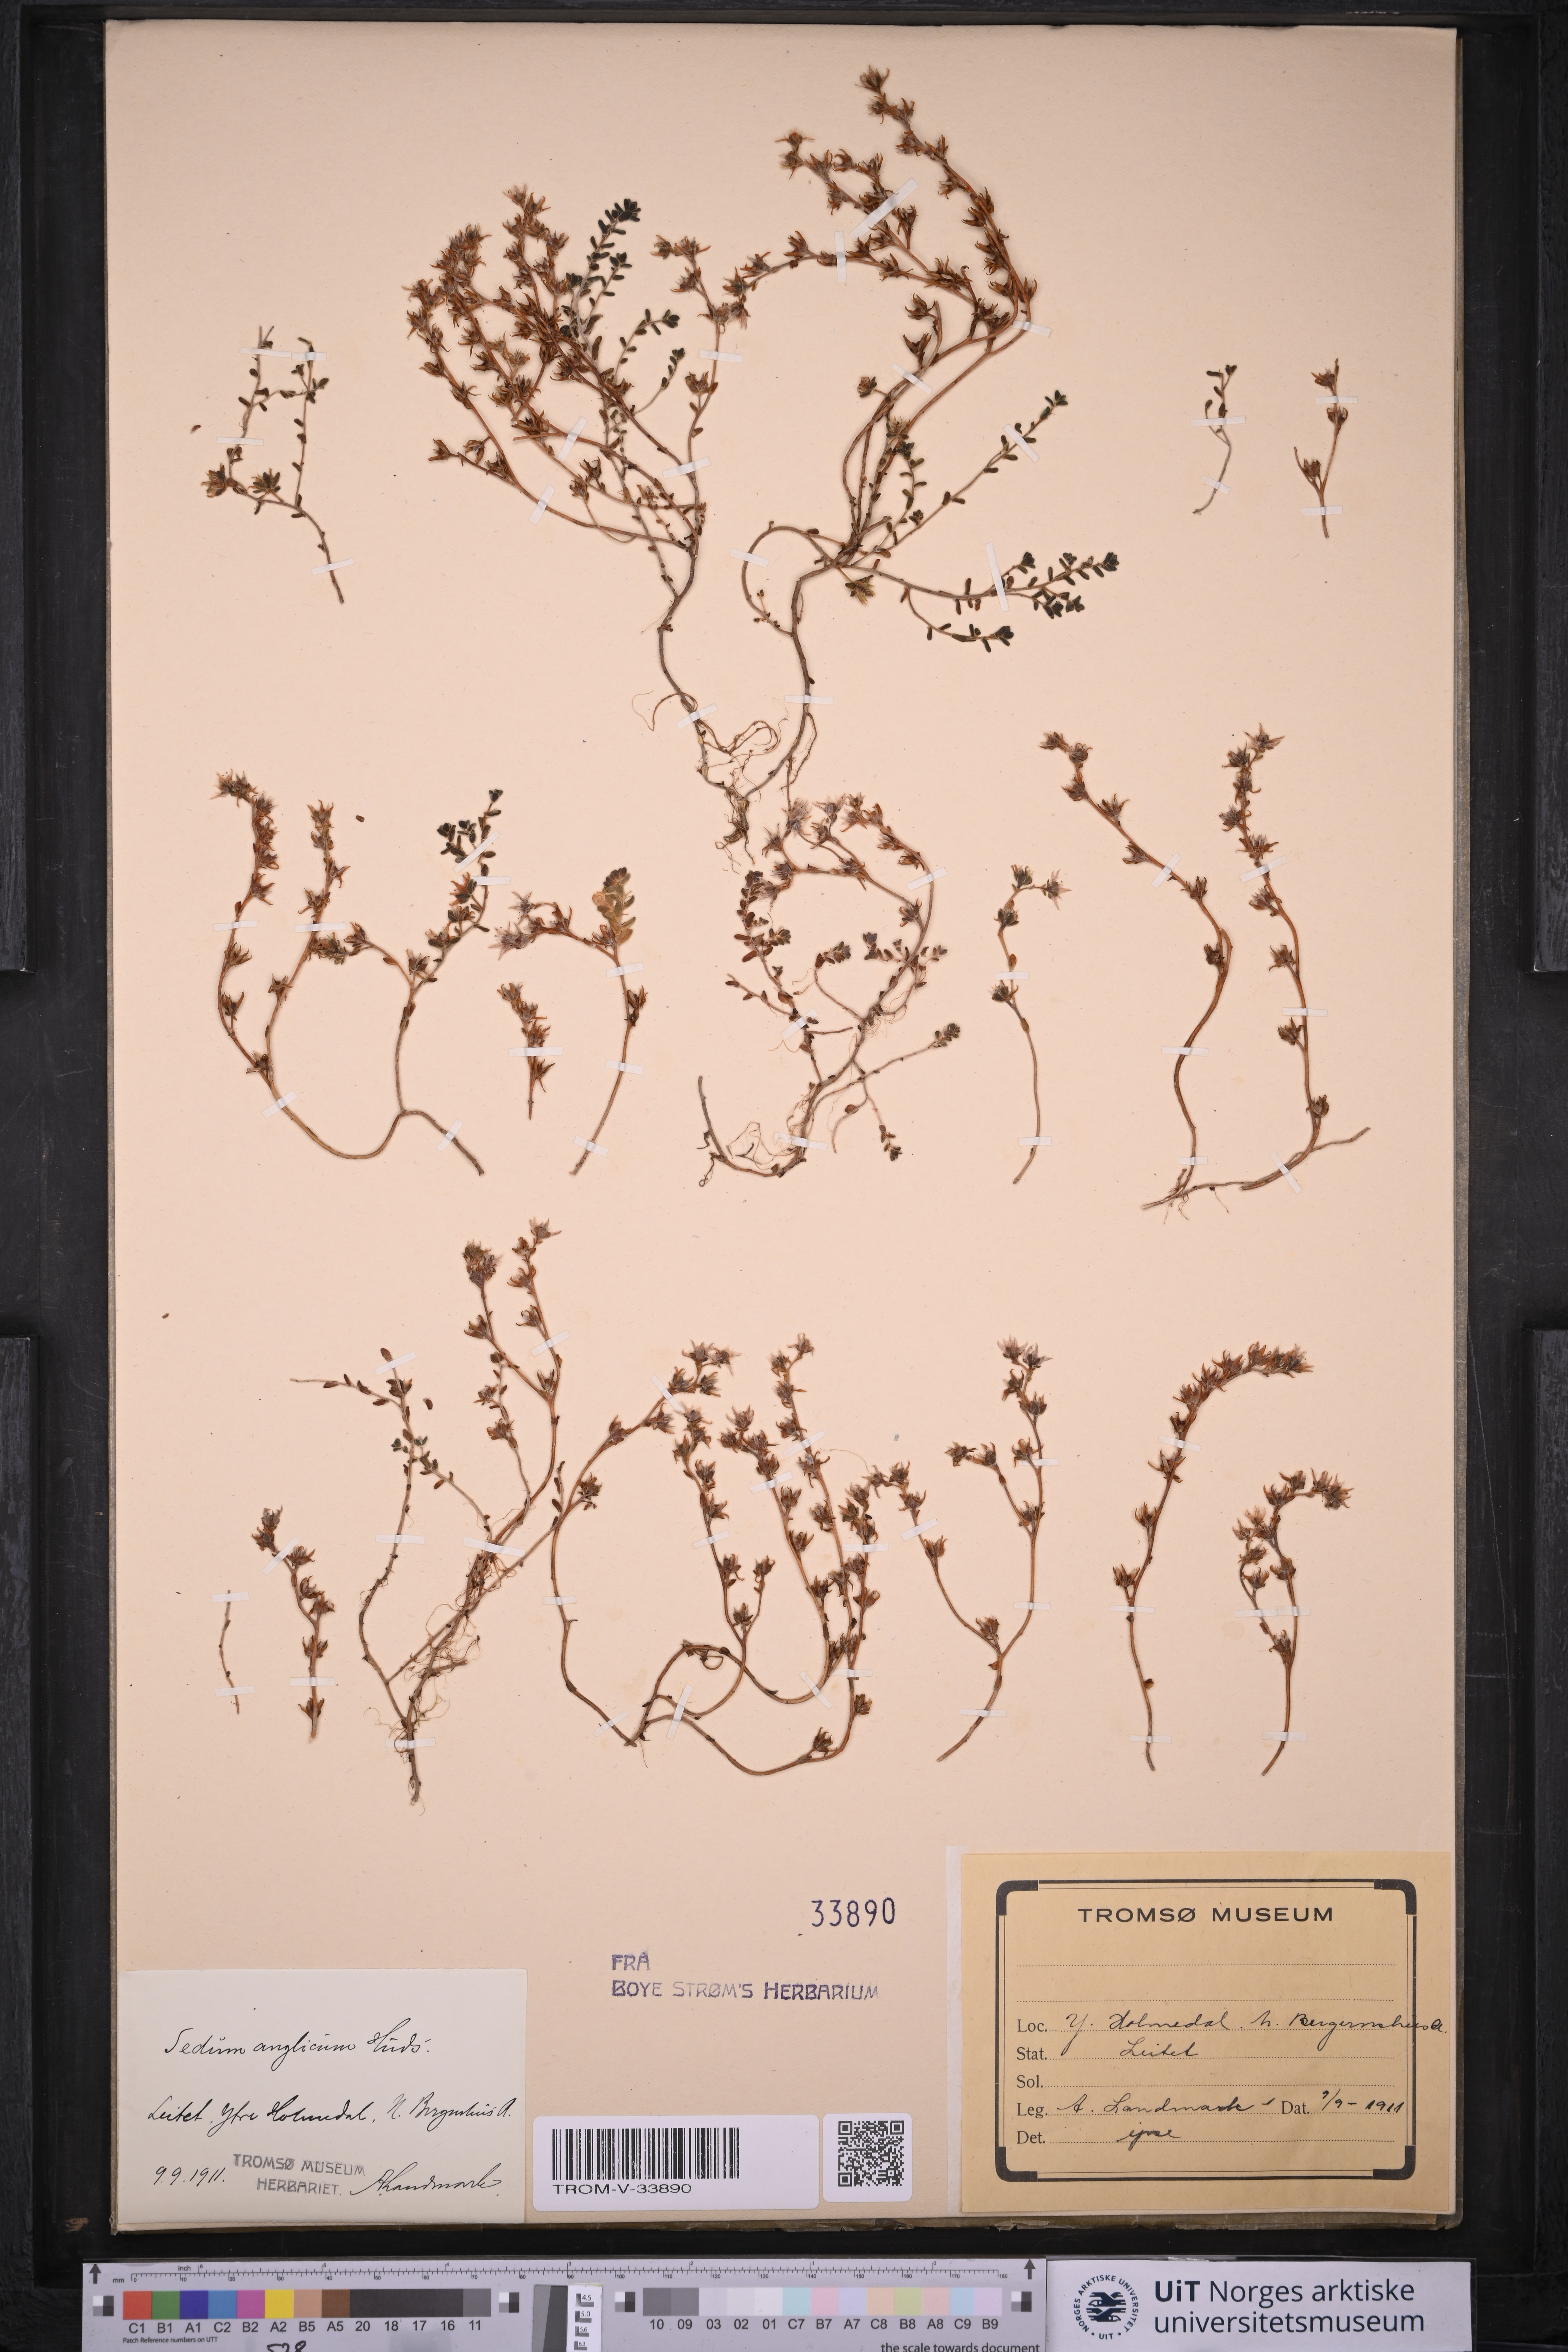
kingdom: Plantae
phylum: Tracheophyta
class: Magnoliopsida
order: Saxifragales
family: Crassulaceae
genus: Sedum
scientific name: Sedum anglicum
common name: English stonecrop
